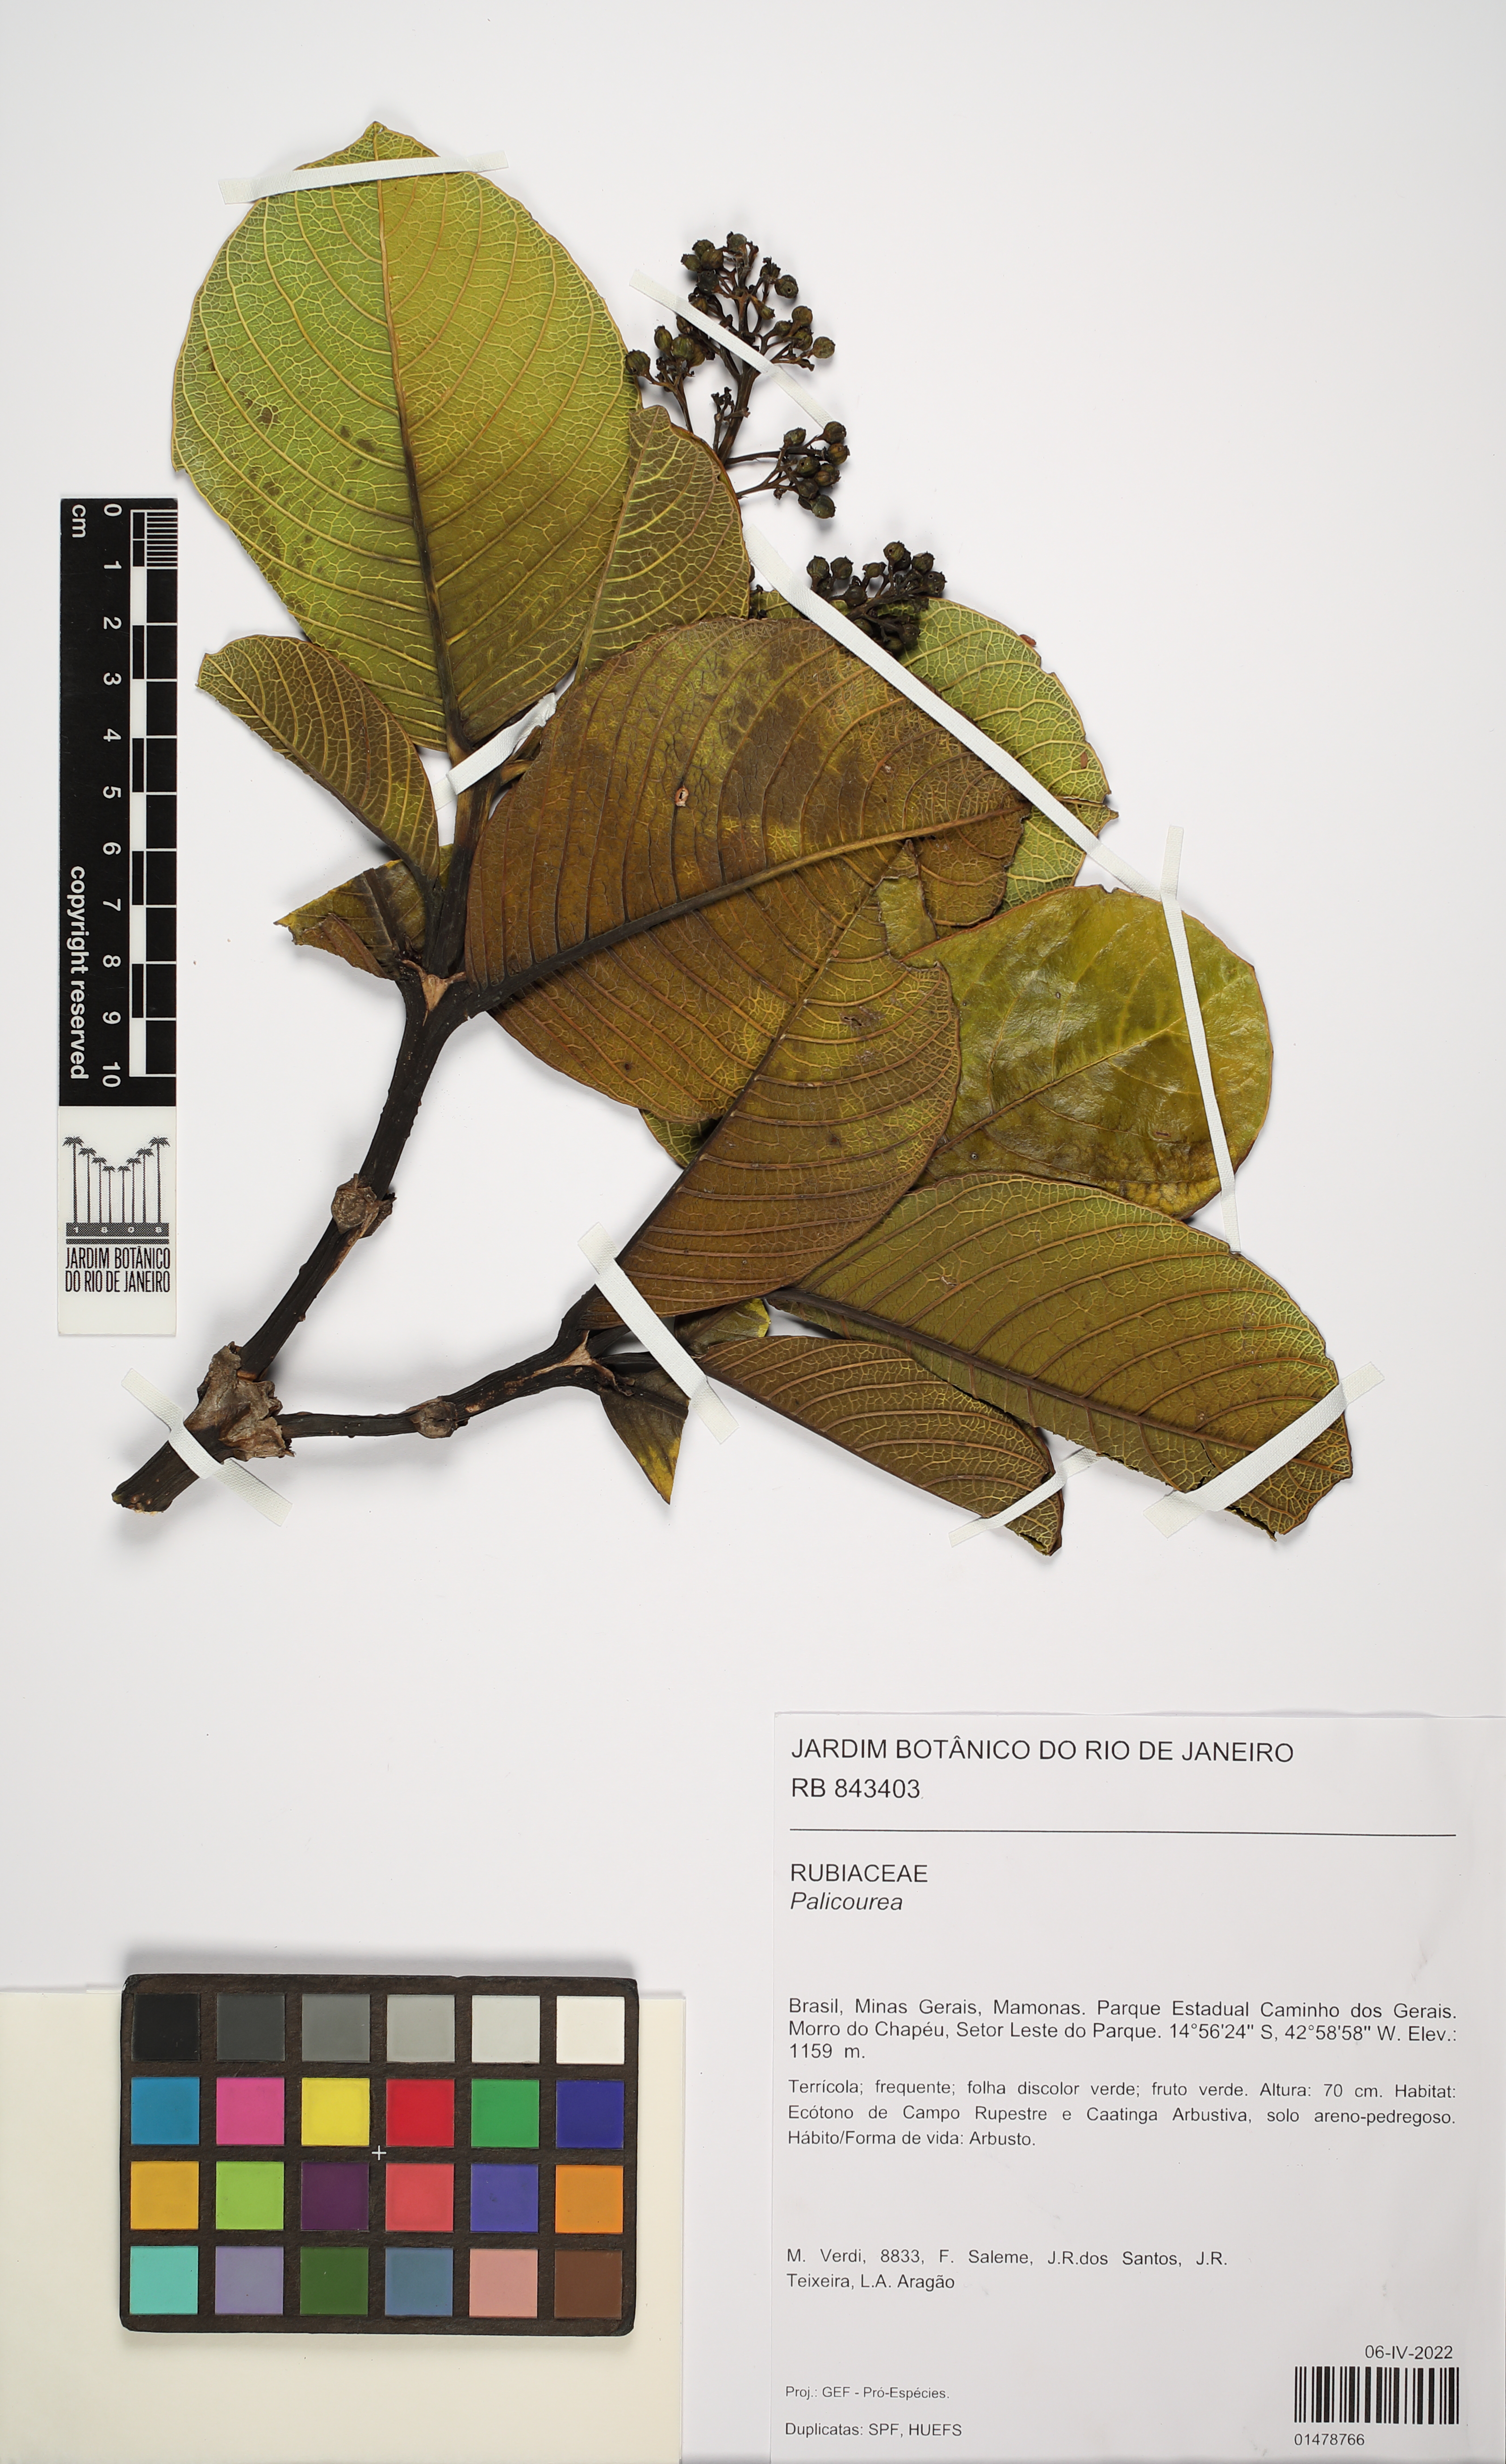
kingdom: Plantae
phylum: Tracheophyta
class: Magnoliopsida
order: Gentianales
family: Rubiaceae
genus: Palicourea
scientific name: Palicourea
